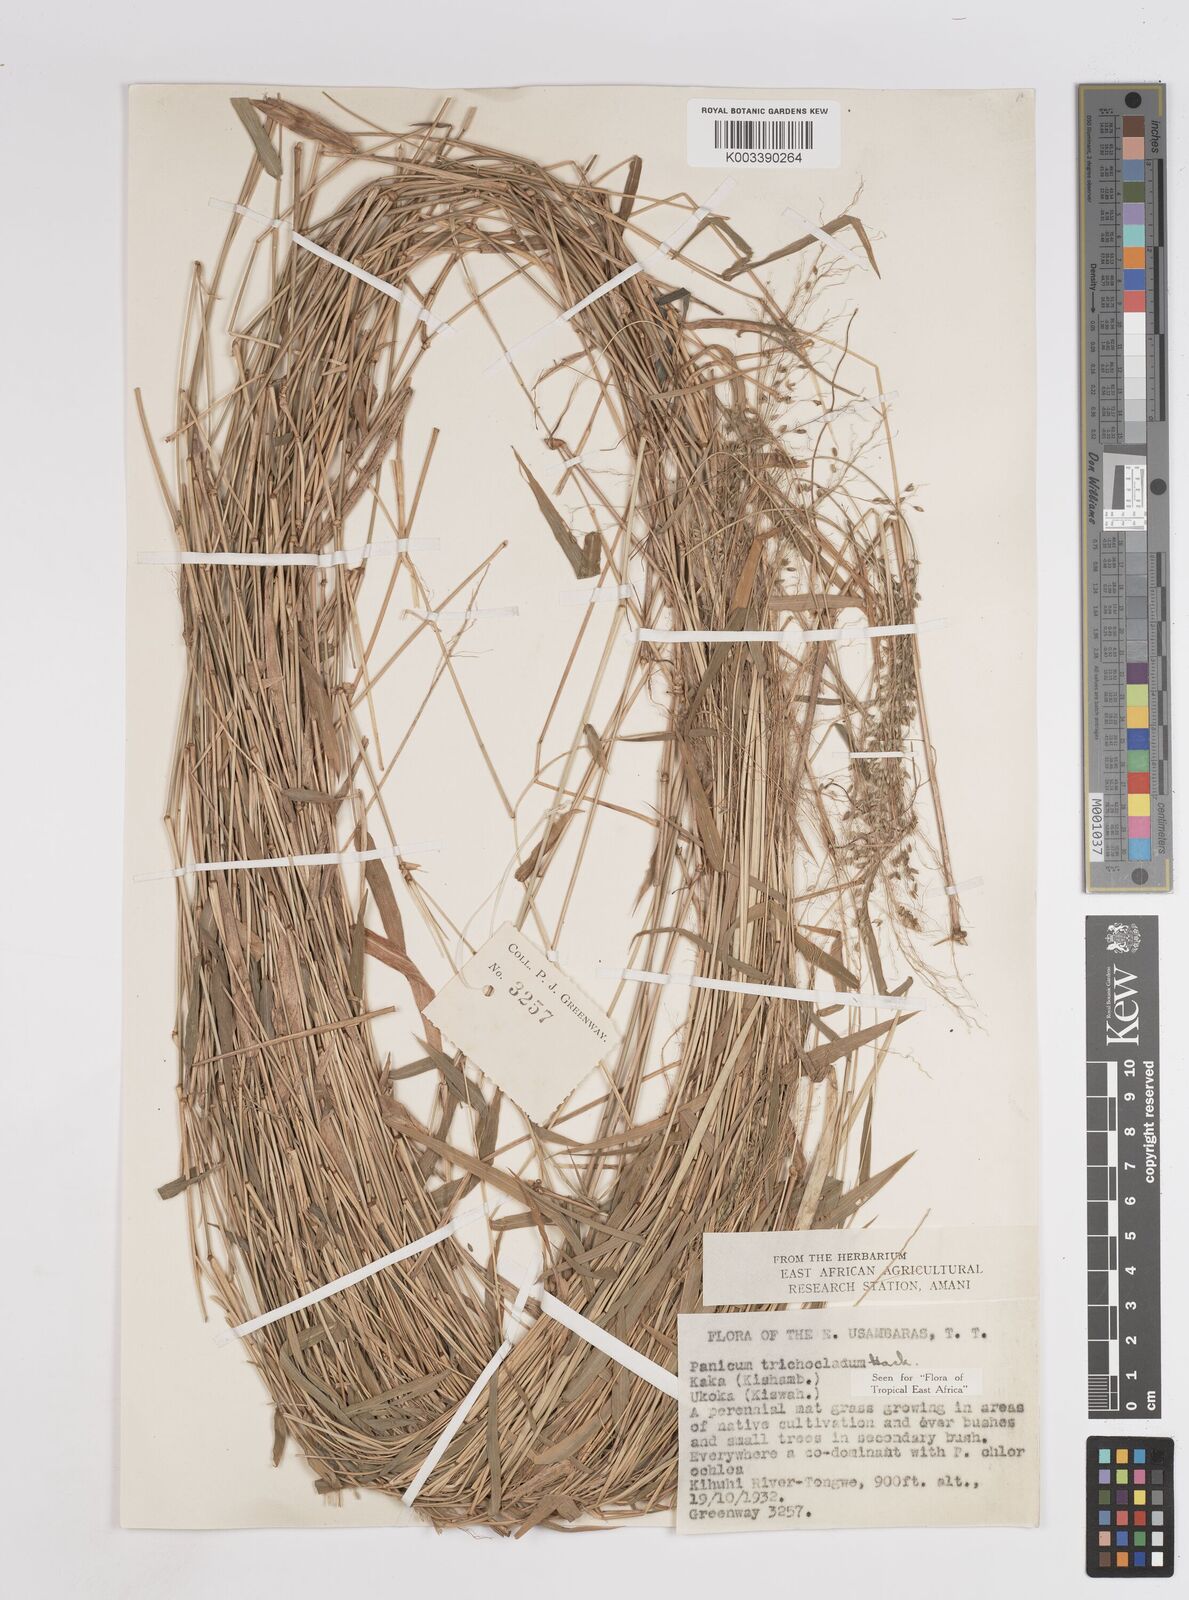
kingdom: Plantae
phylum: Tracheophyta
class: Liliopsida
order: Poales
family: Poaceae
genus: Panicum
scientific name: Panicum trichocladum
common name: Donkey grass
